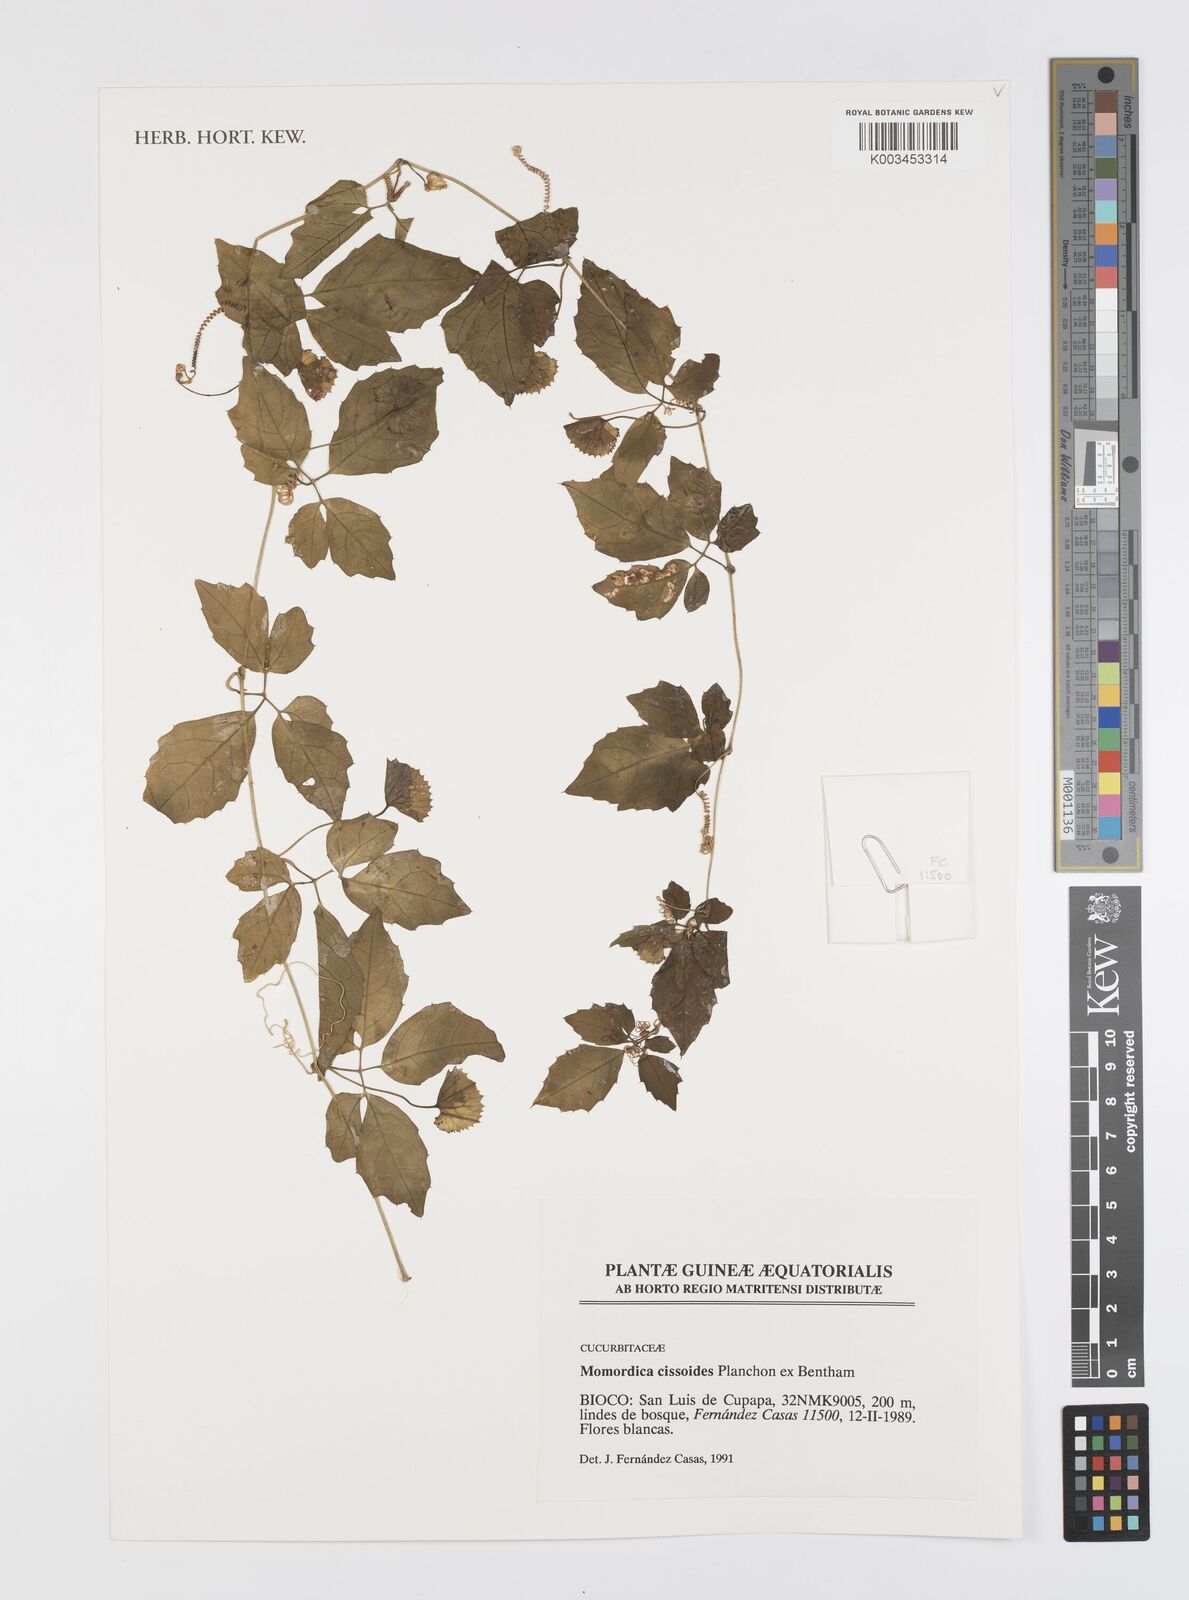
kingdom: Plantae
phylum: Tracheophyta
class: Magnoliopsida
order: Cucurbitales
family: Cucurbitaceae
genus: Momordica
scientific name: Momordica cissoides
